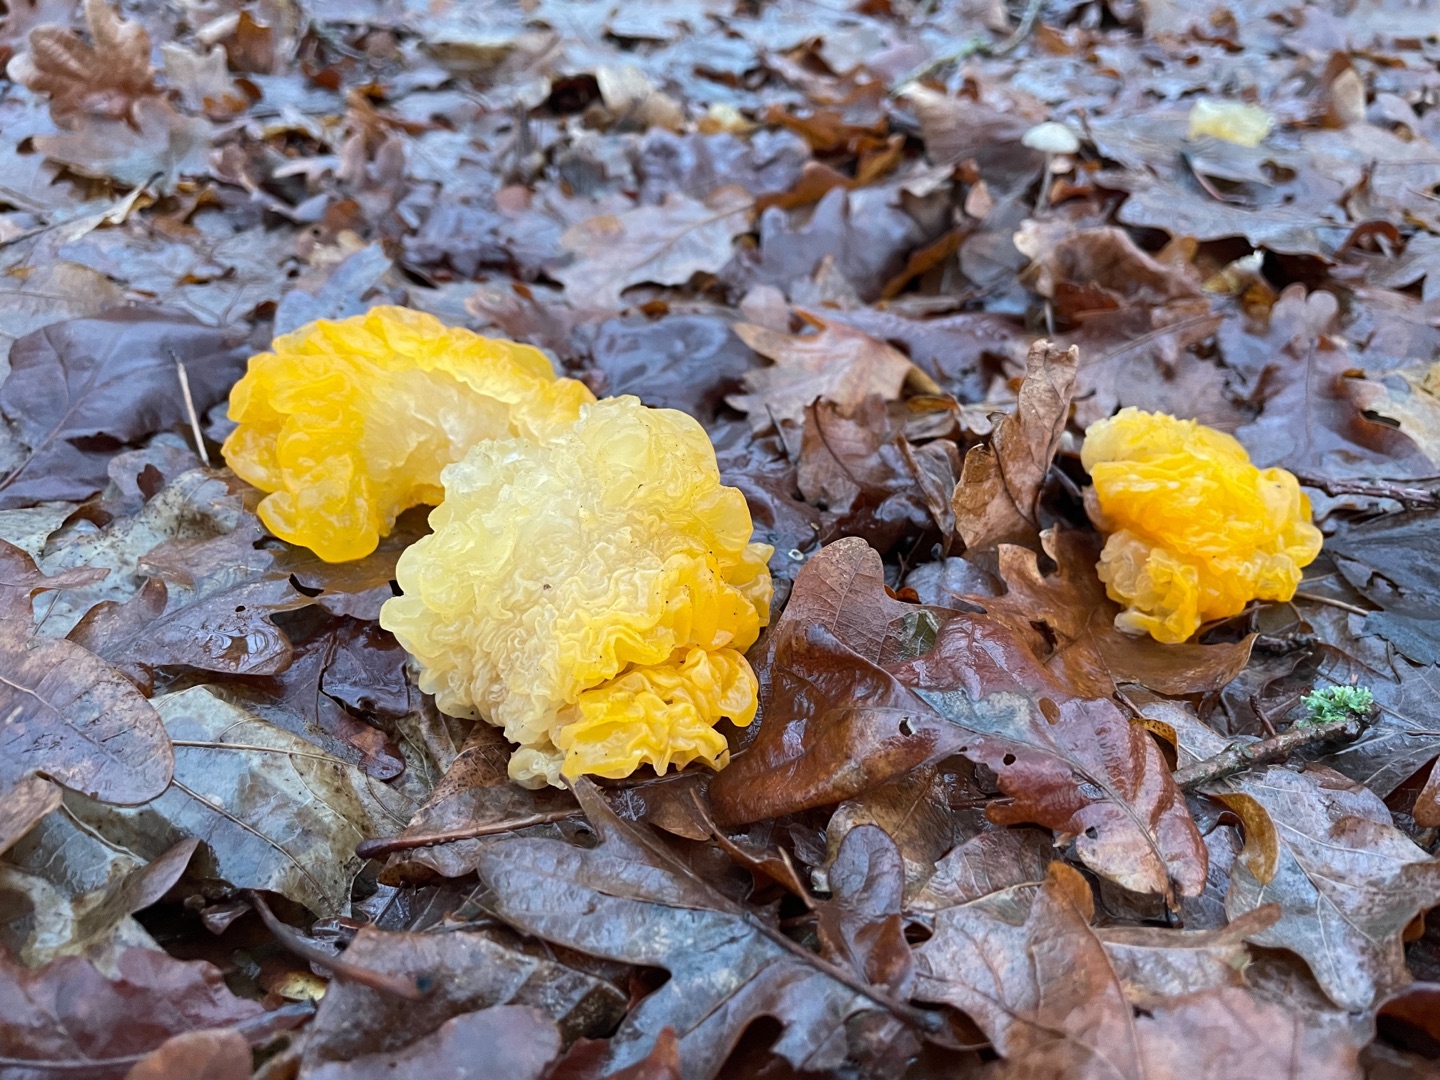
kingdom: Fungi
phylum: Basidiomycota
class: Tremellomycetes
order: Tremellales
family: Tremellaceae
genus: Tremella
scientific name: Tremella mesenterica
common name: Gul bævresvamp
